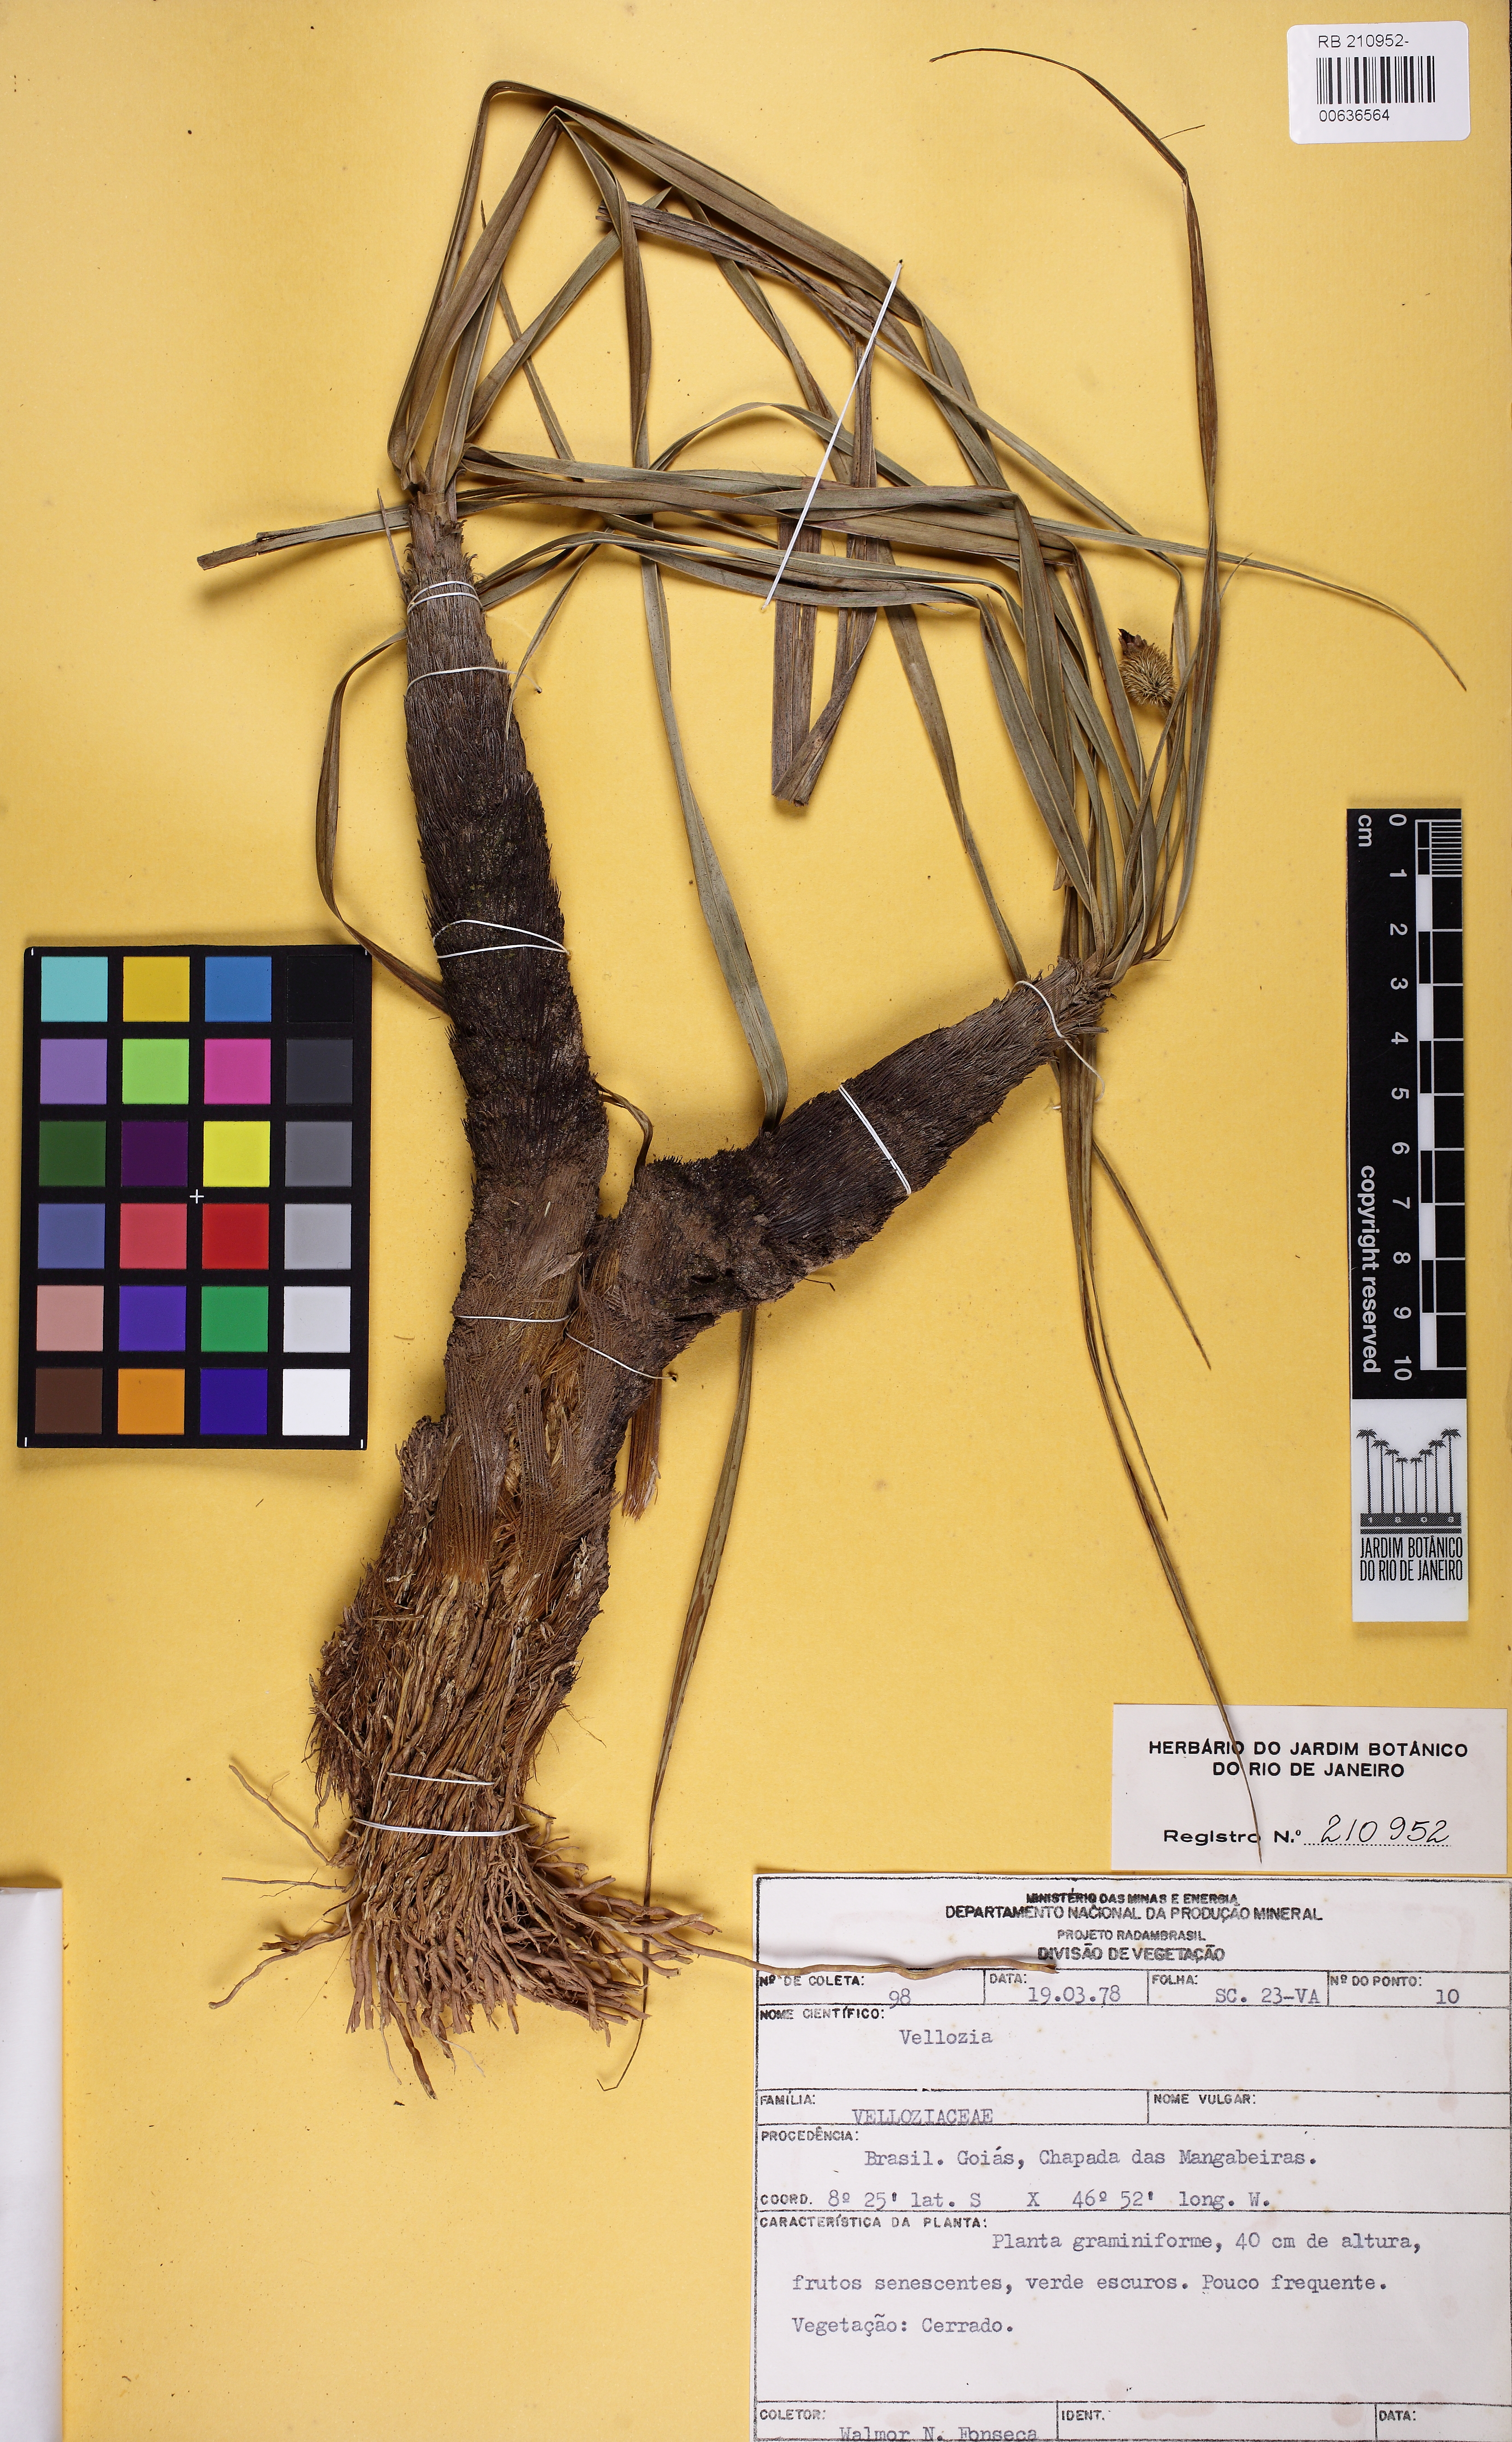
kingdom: Plantae
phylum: Tracheophyta
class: Liliopsida
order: Pandanales
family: Velloziaceae
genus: Vellozia
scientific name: Vellozia
